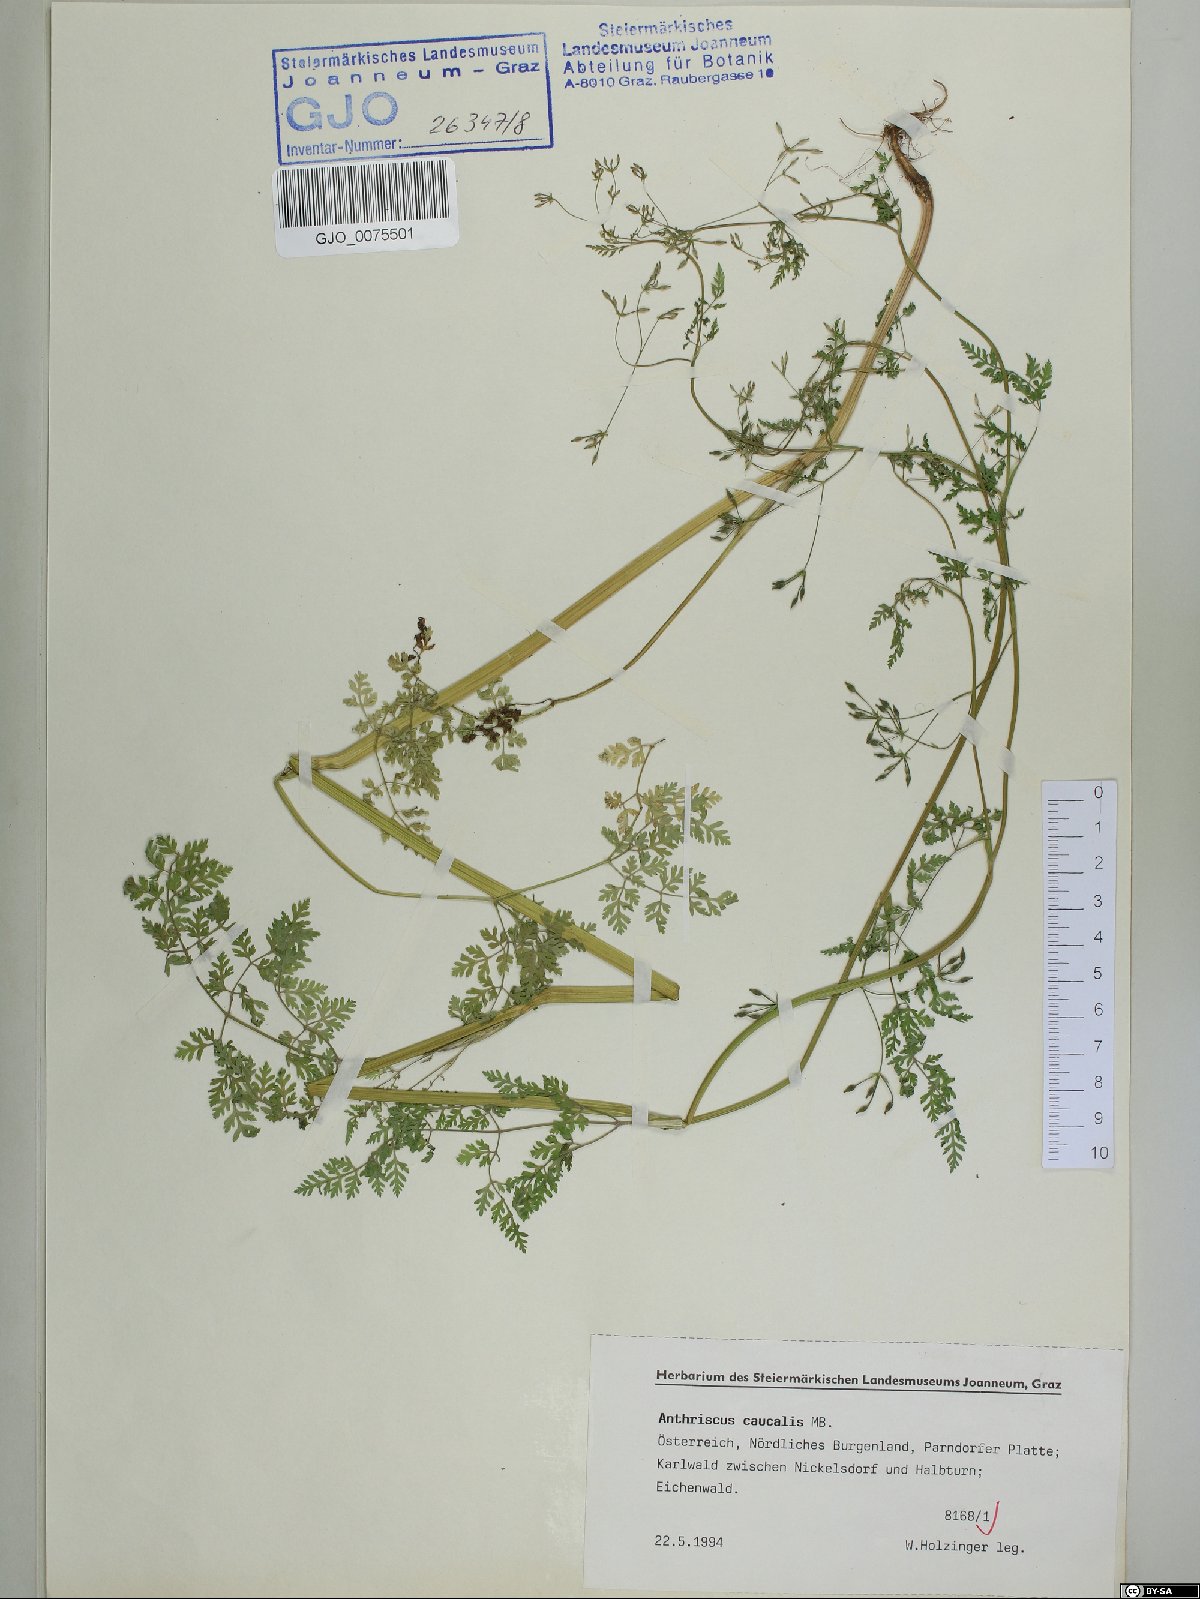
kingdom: Plantae
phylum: Tracheophyta
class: Magnoliopsida
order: Apiales
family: Apiaceae
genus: Anthriscus
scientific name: Anthriscus caucalis
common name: Bur chervil
